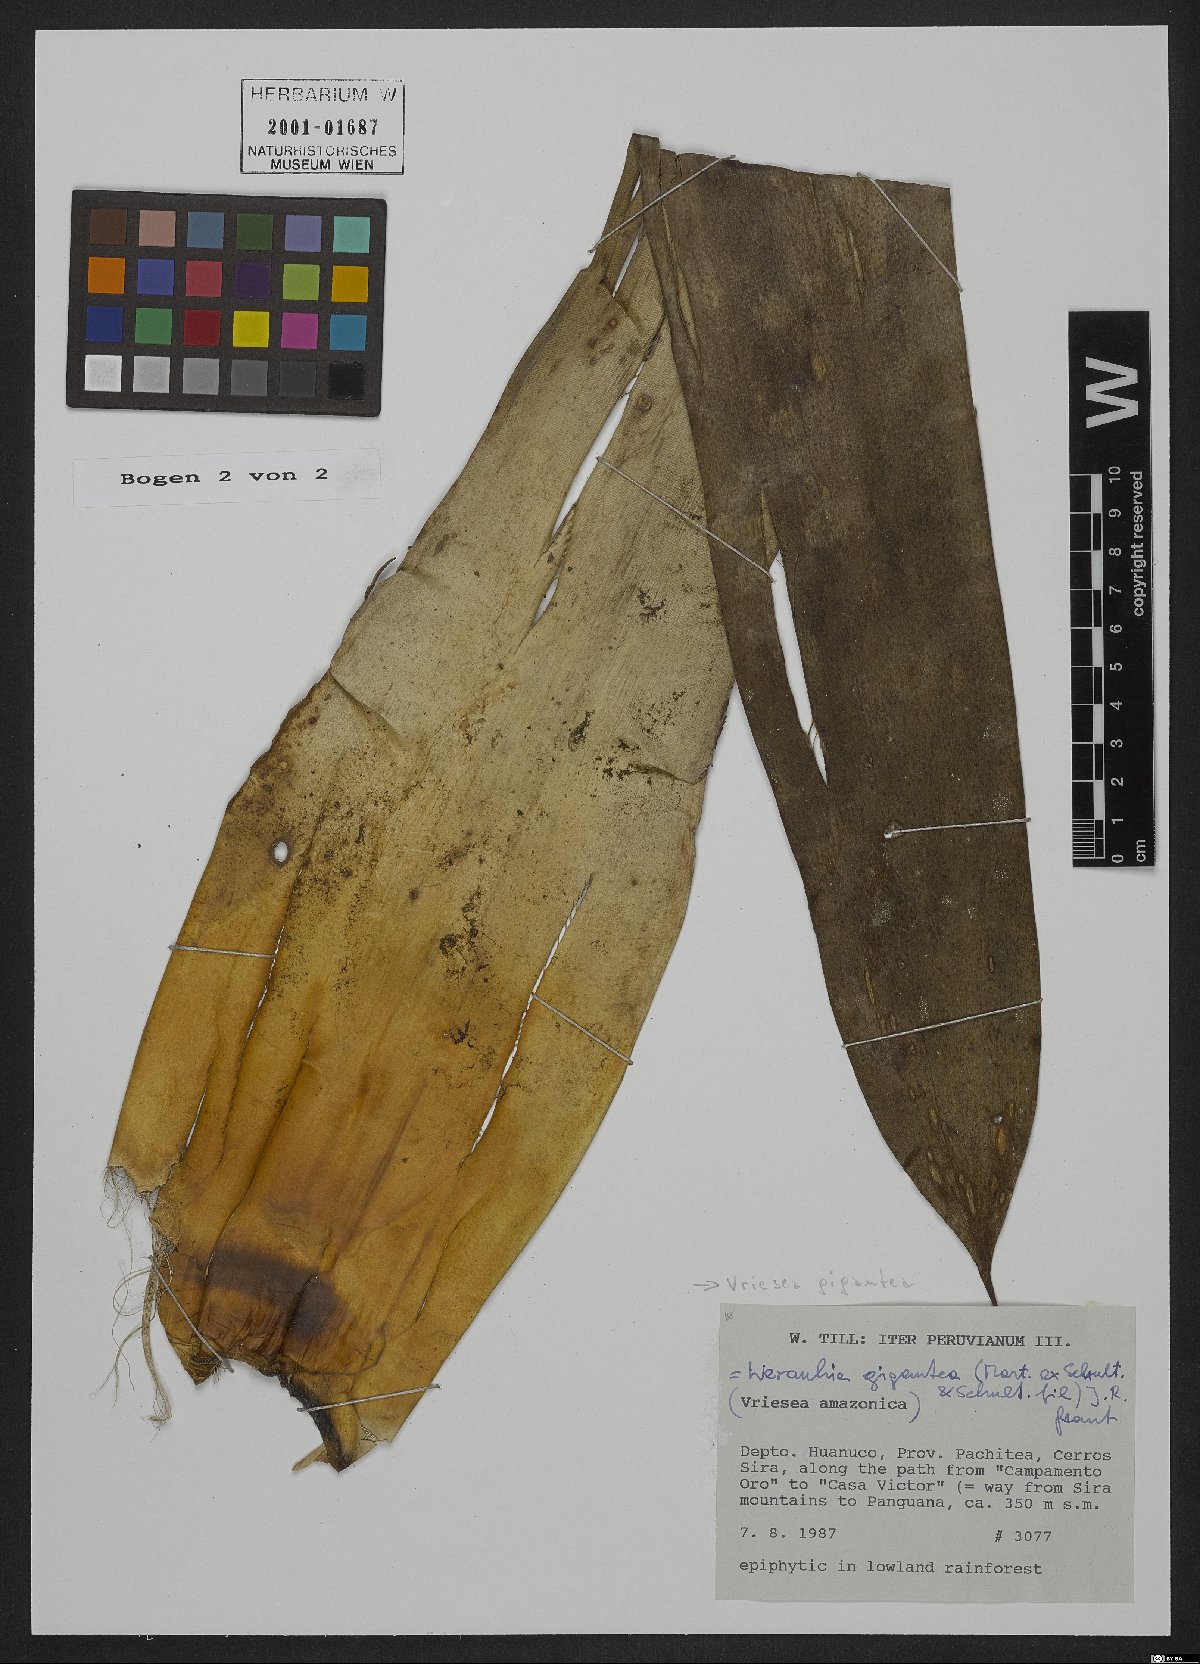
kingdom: Plantae
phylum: Tracheophyta
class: Liliopsida
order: Poales
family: Bromeliaceae
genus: Vriesea
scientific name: Vriesea gigantea
